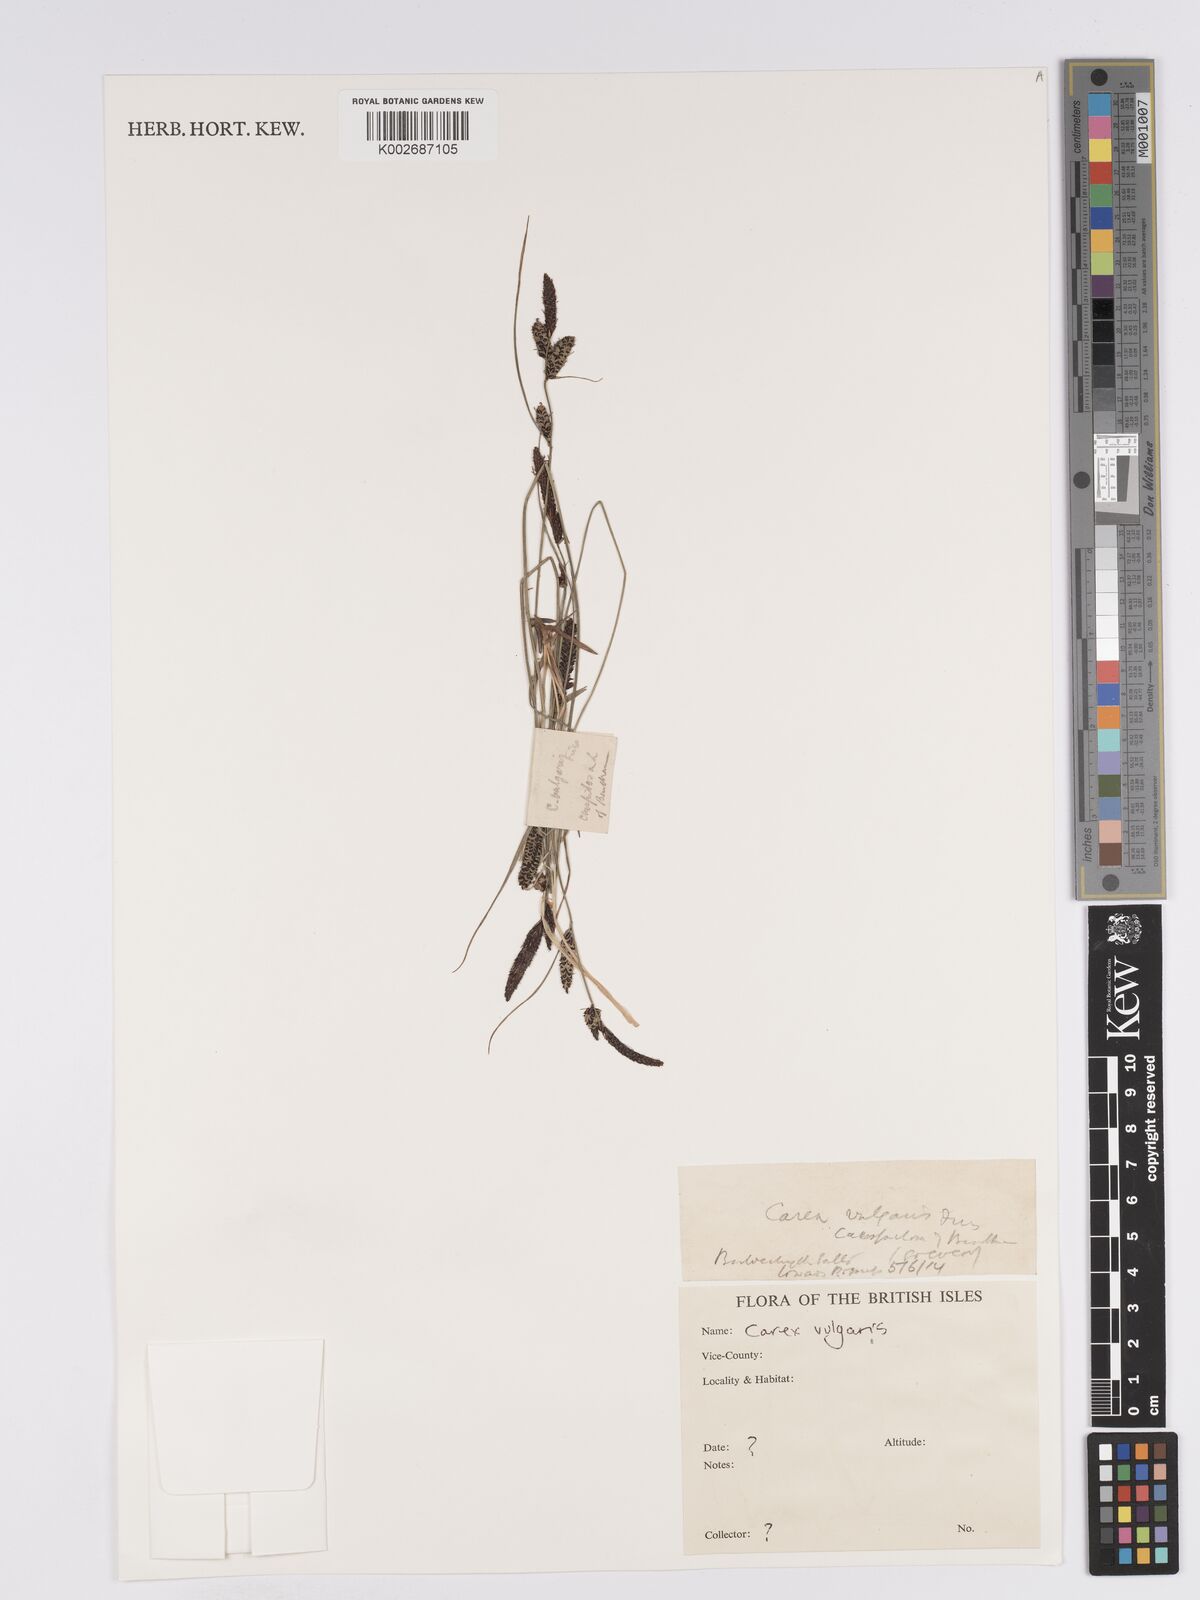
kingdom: Plantae
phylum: Tracheophyta
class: Liliopsida
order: Poales
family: Cyperaceae
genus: Carex
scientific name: Carex nigra
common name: Common sedge
